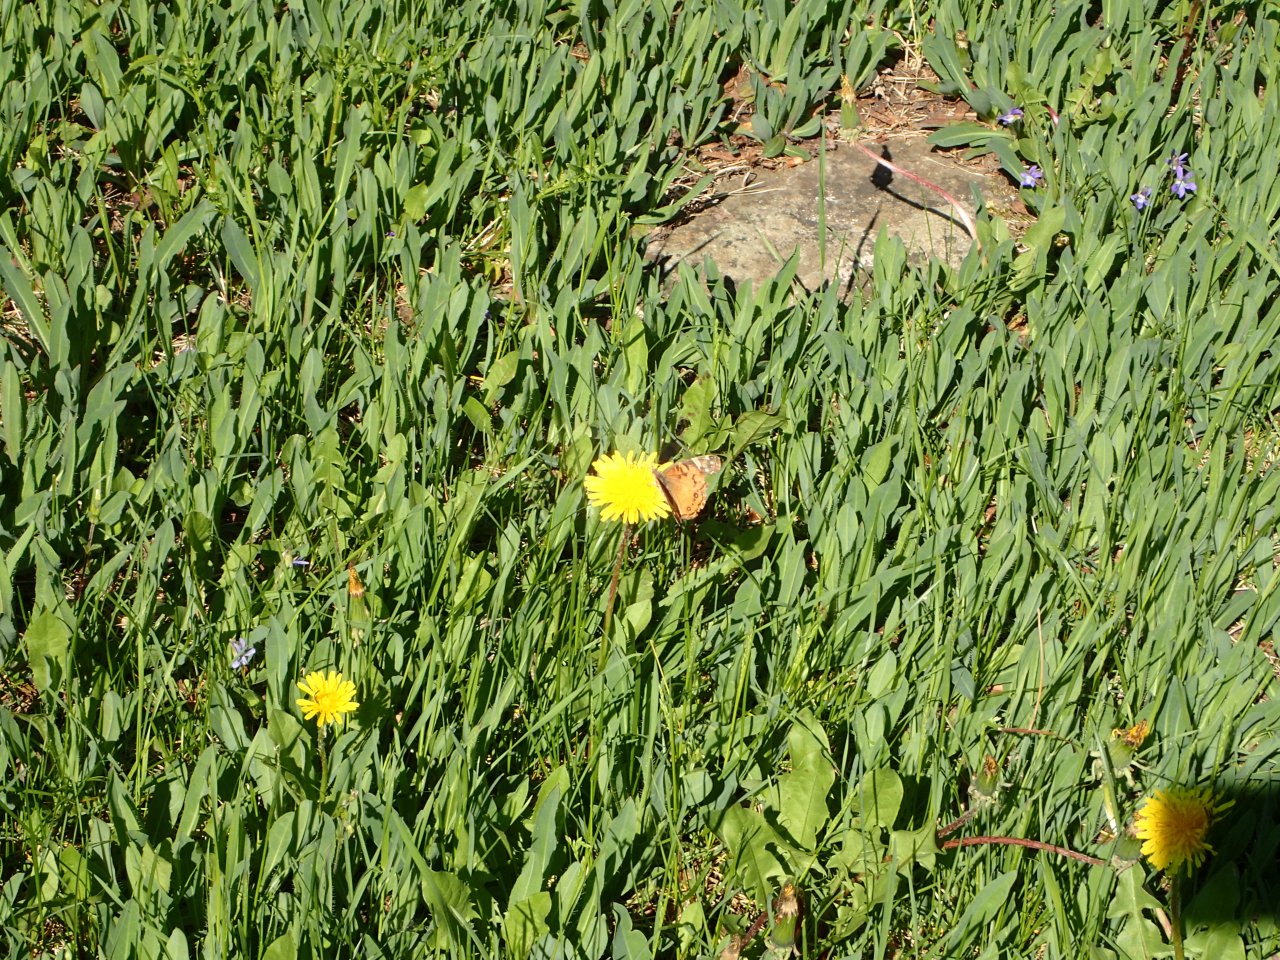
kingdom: Animalia
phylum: Arthropoda
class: Insecta
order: Lepidoptera
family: Nymphalidae
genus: Vanessa
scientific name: Vanessa virginiensis
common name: American Lady
